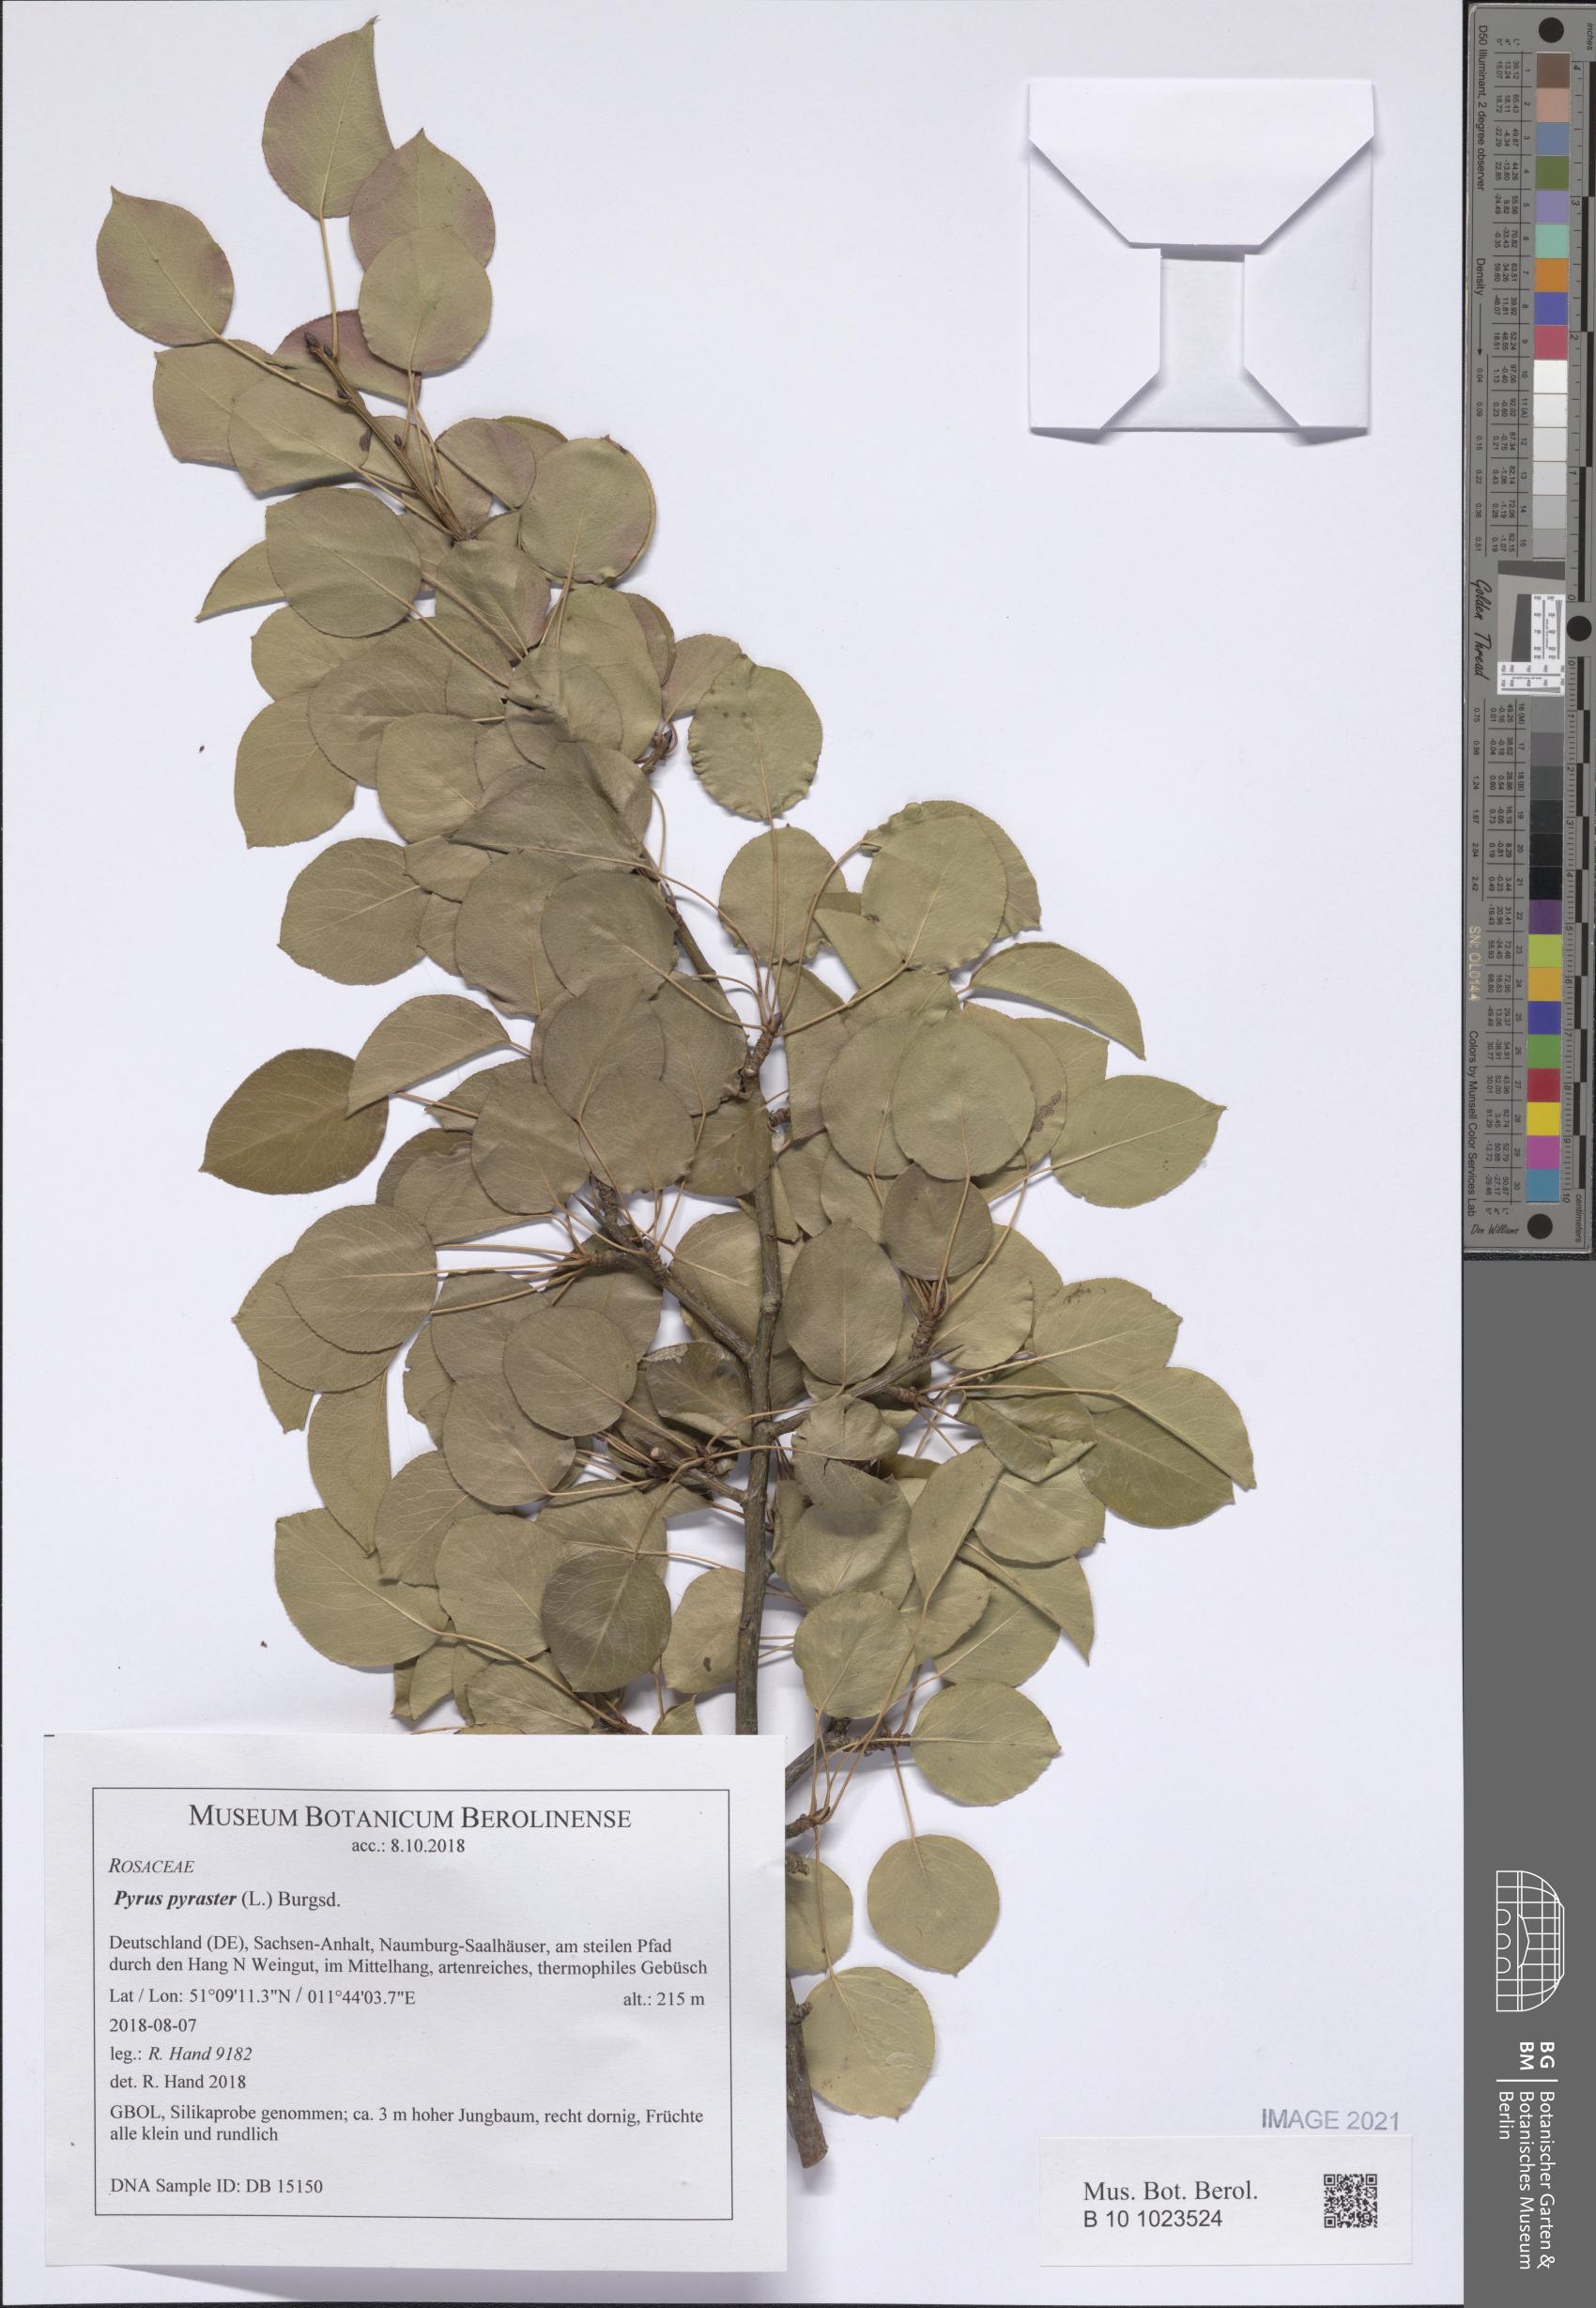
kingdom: Plantae
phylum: Tracheophyta
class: Magnoliopsida
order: Rosales
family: Rosaceae
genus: Pyrus
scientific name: Pyrus pyraster
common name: Wild pear
